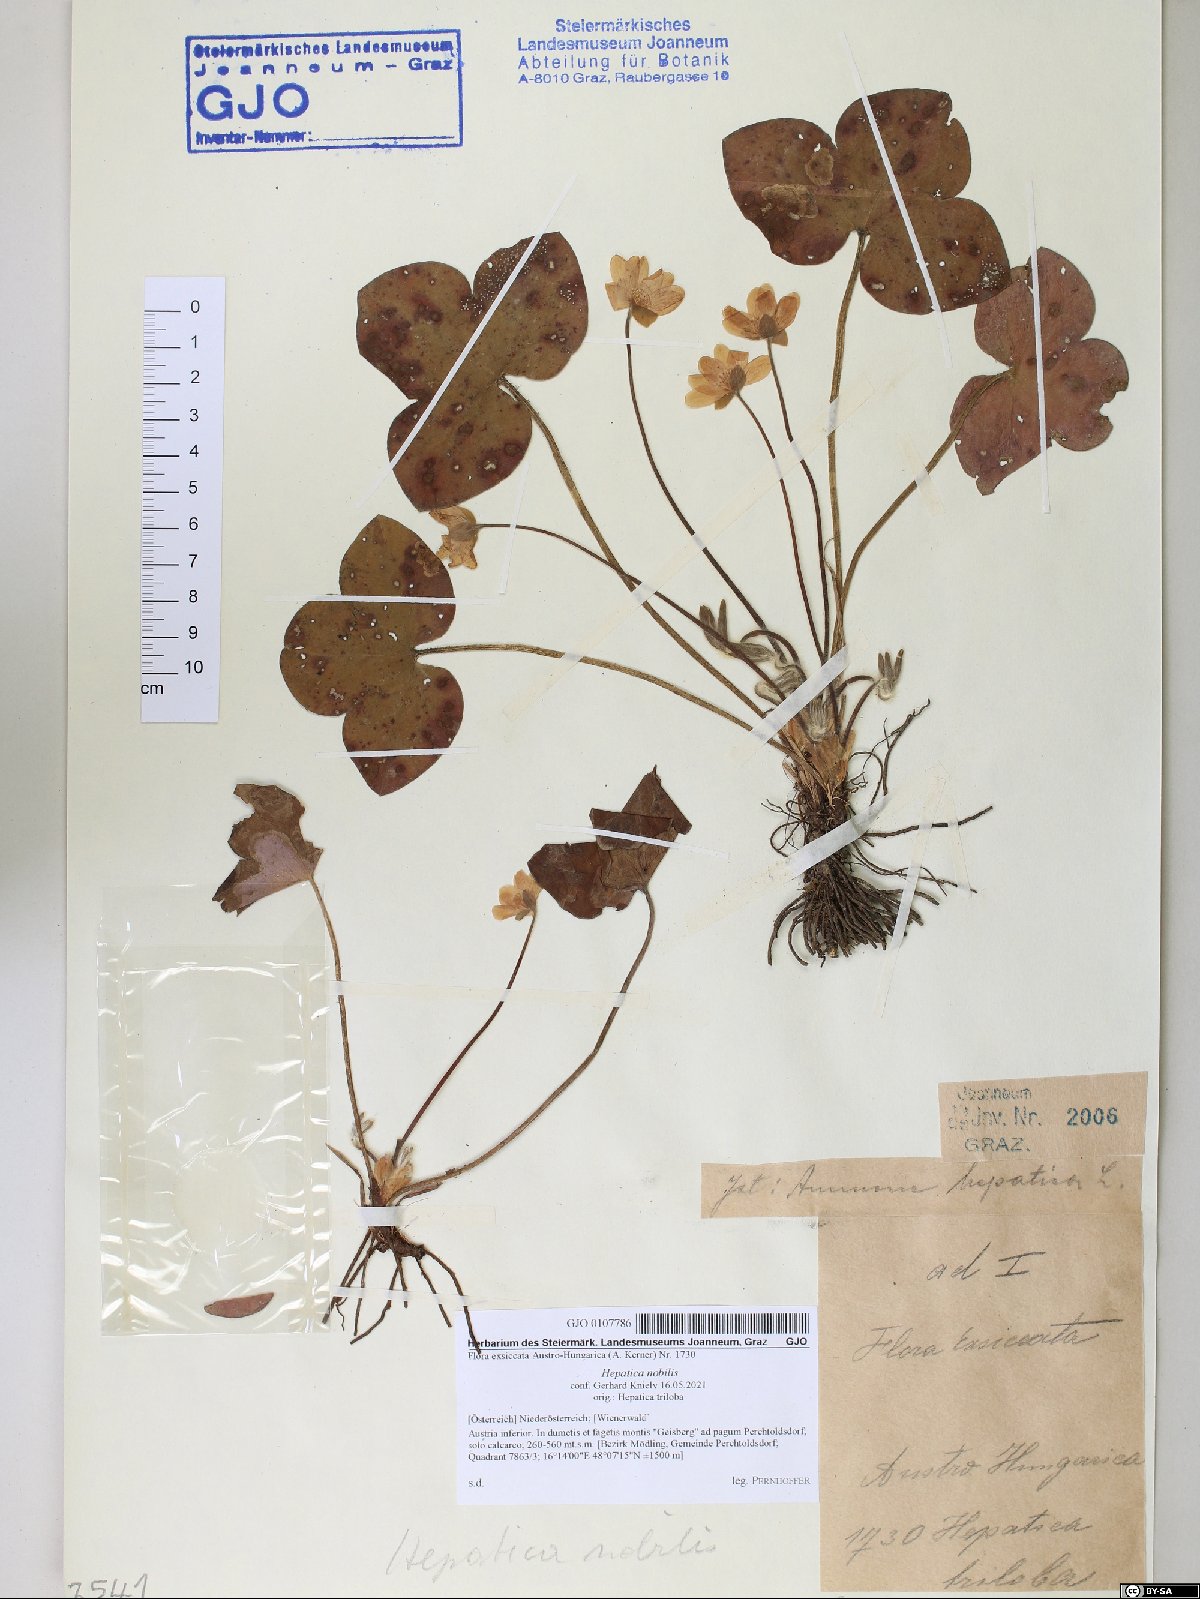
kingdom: Plantae
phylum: Tracheophyta
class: Magnoliopsida
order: Ranunculales
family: Ranunculaceae
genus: Hepatica
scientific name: Hepatica nobilis
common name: Liverleaf
